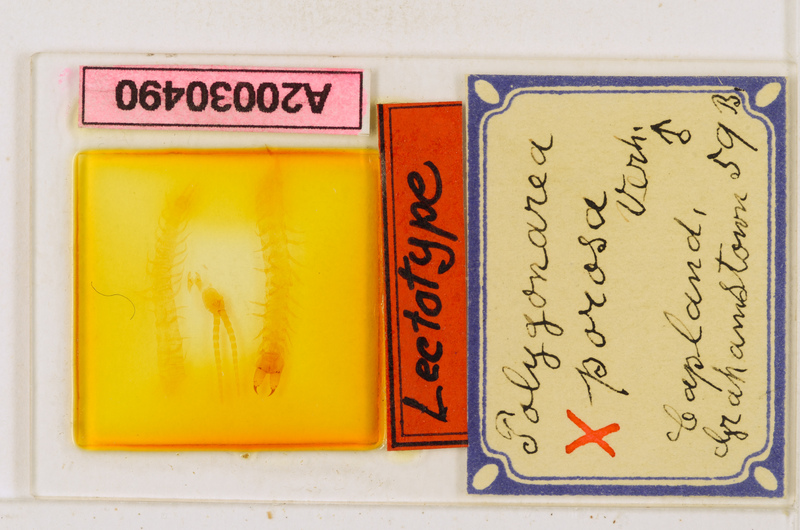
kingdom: Animalia
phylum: Arthropoda
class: Chilopoda
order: Geophilomorpha
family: Geophilidae
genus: Polygonarea
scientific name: Polygonarea africana
